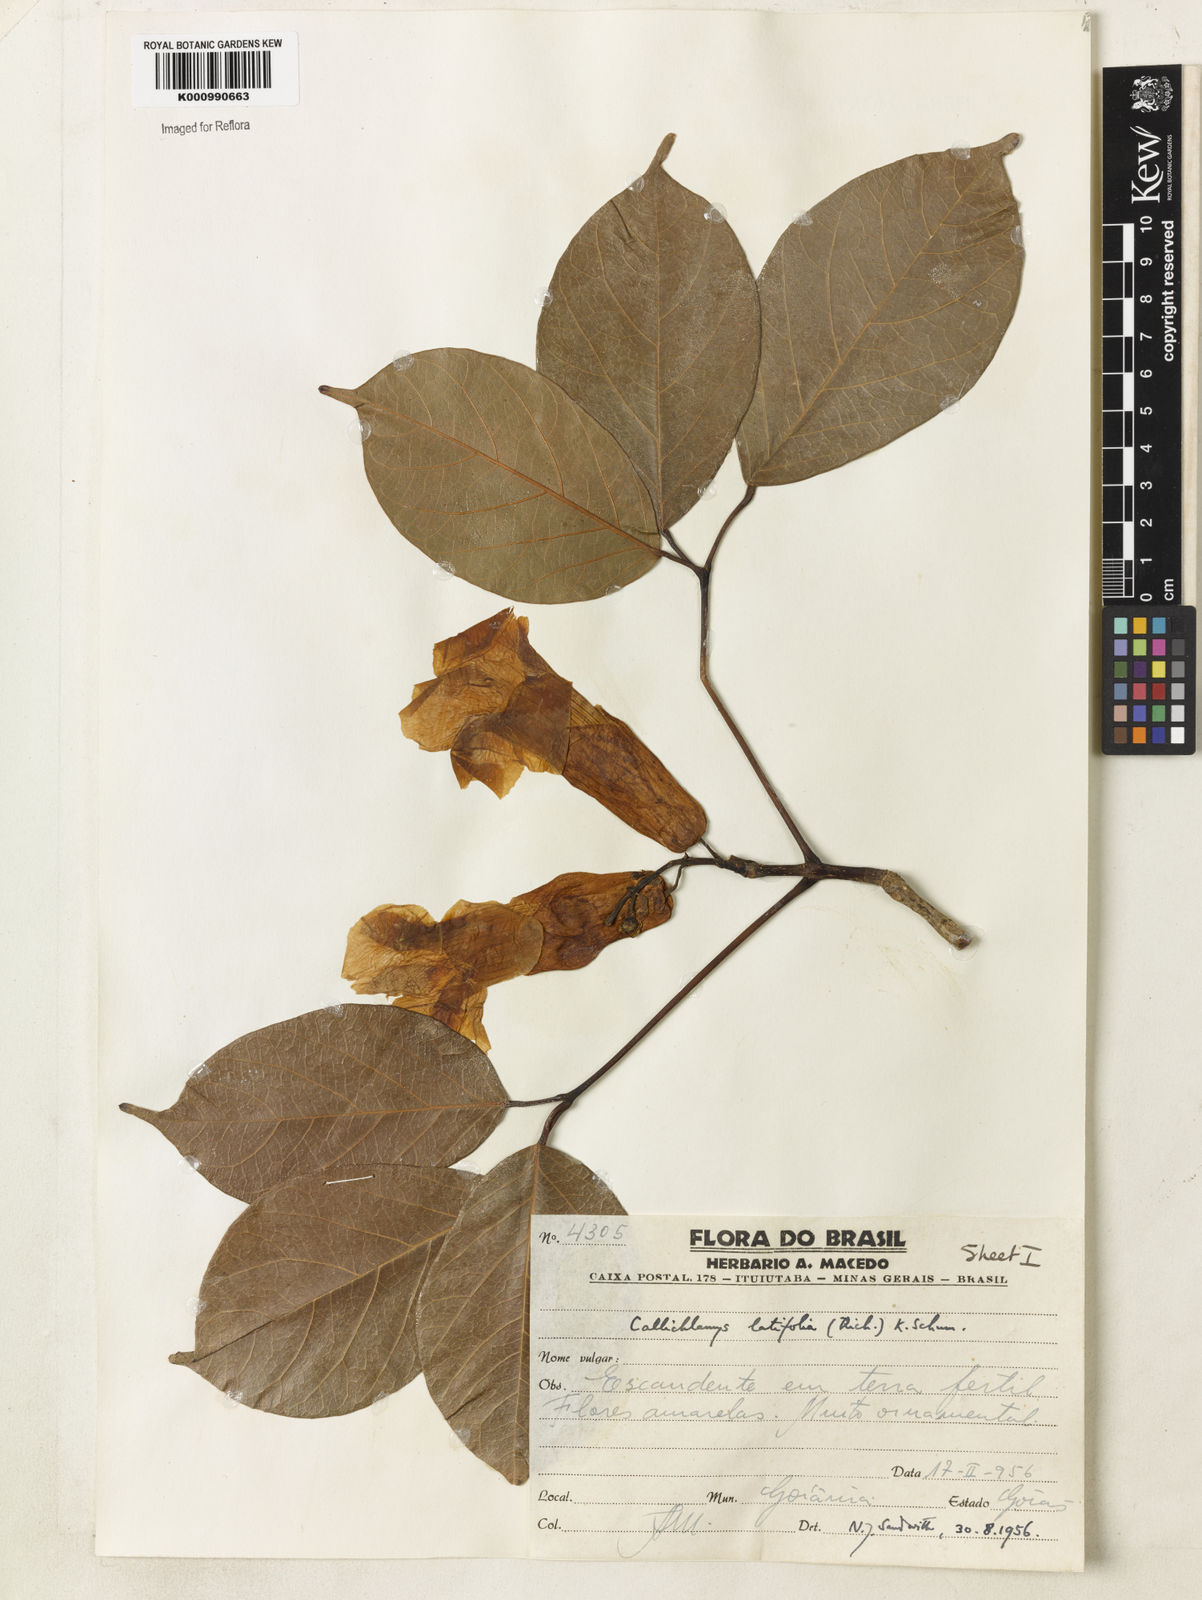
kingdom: Plantae
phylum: Tracheophyta
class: Magnoliopsida
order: Lamiales
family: Bignoniaceae
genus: Callichlamys
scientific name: Callichlamys latifolia
